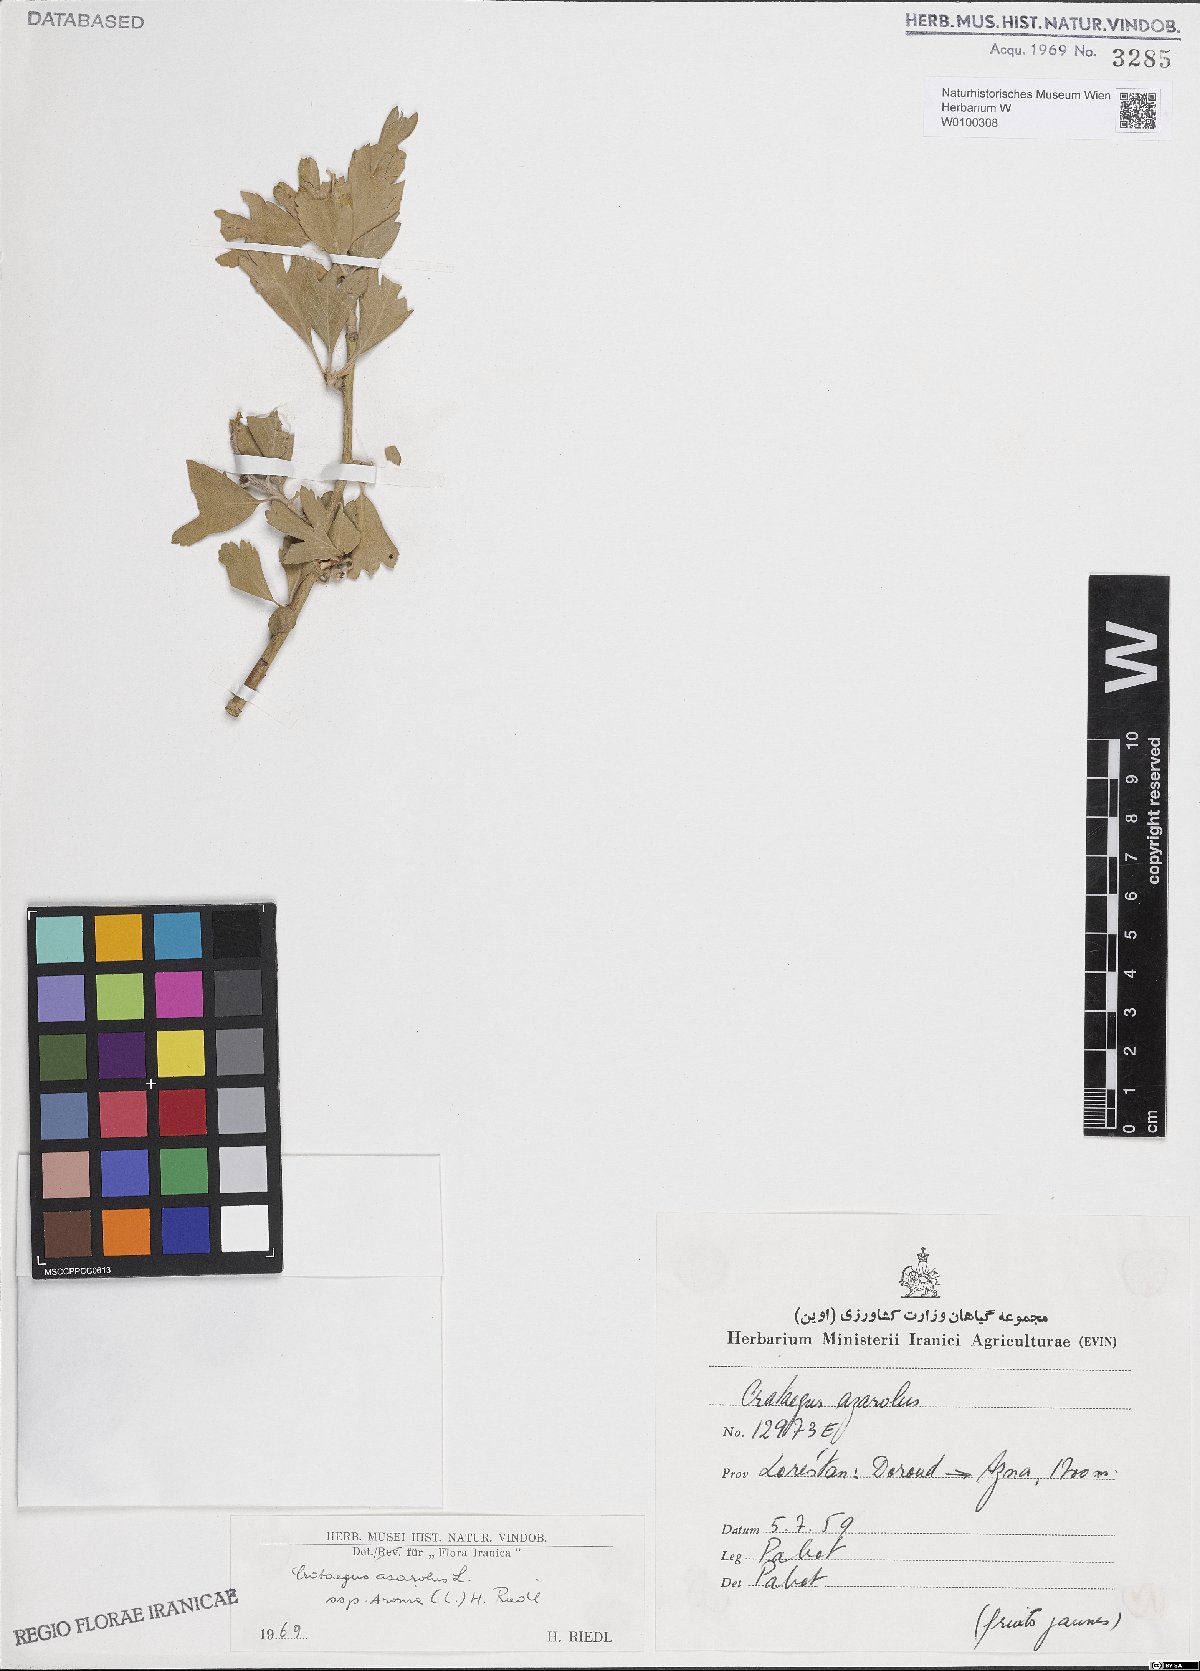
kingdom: Plantae
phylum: Tracheophyta
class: Magnoliopsida
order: Rosales
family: Rosaceae
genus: Crataegus
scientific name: Crataegus azarolus
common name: Azarole
